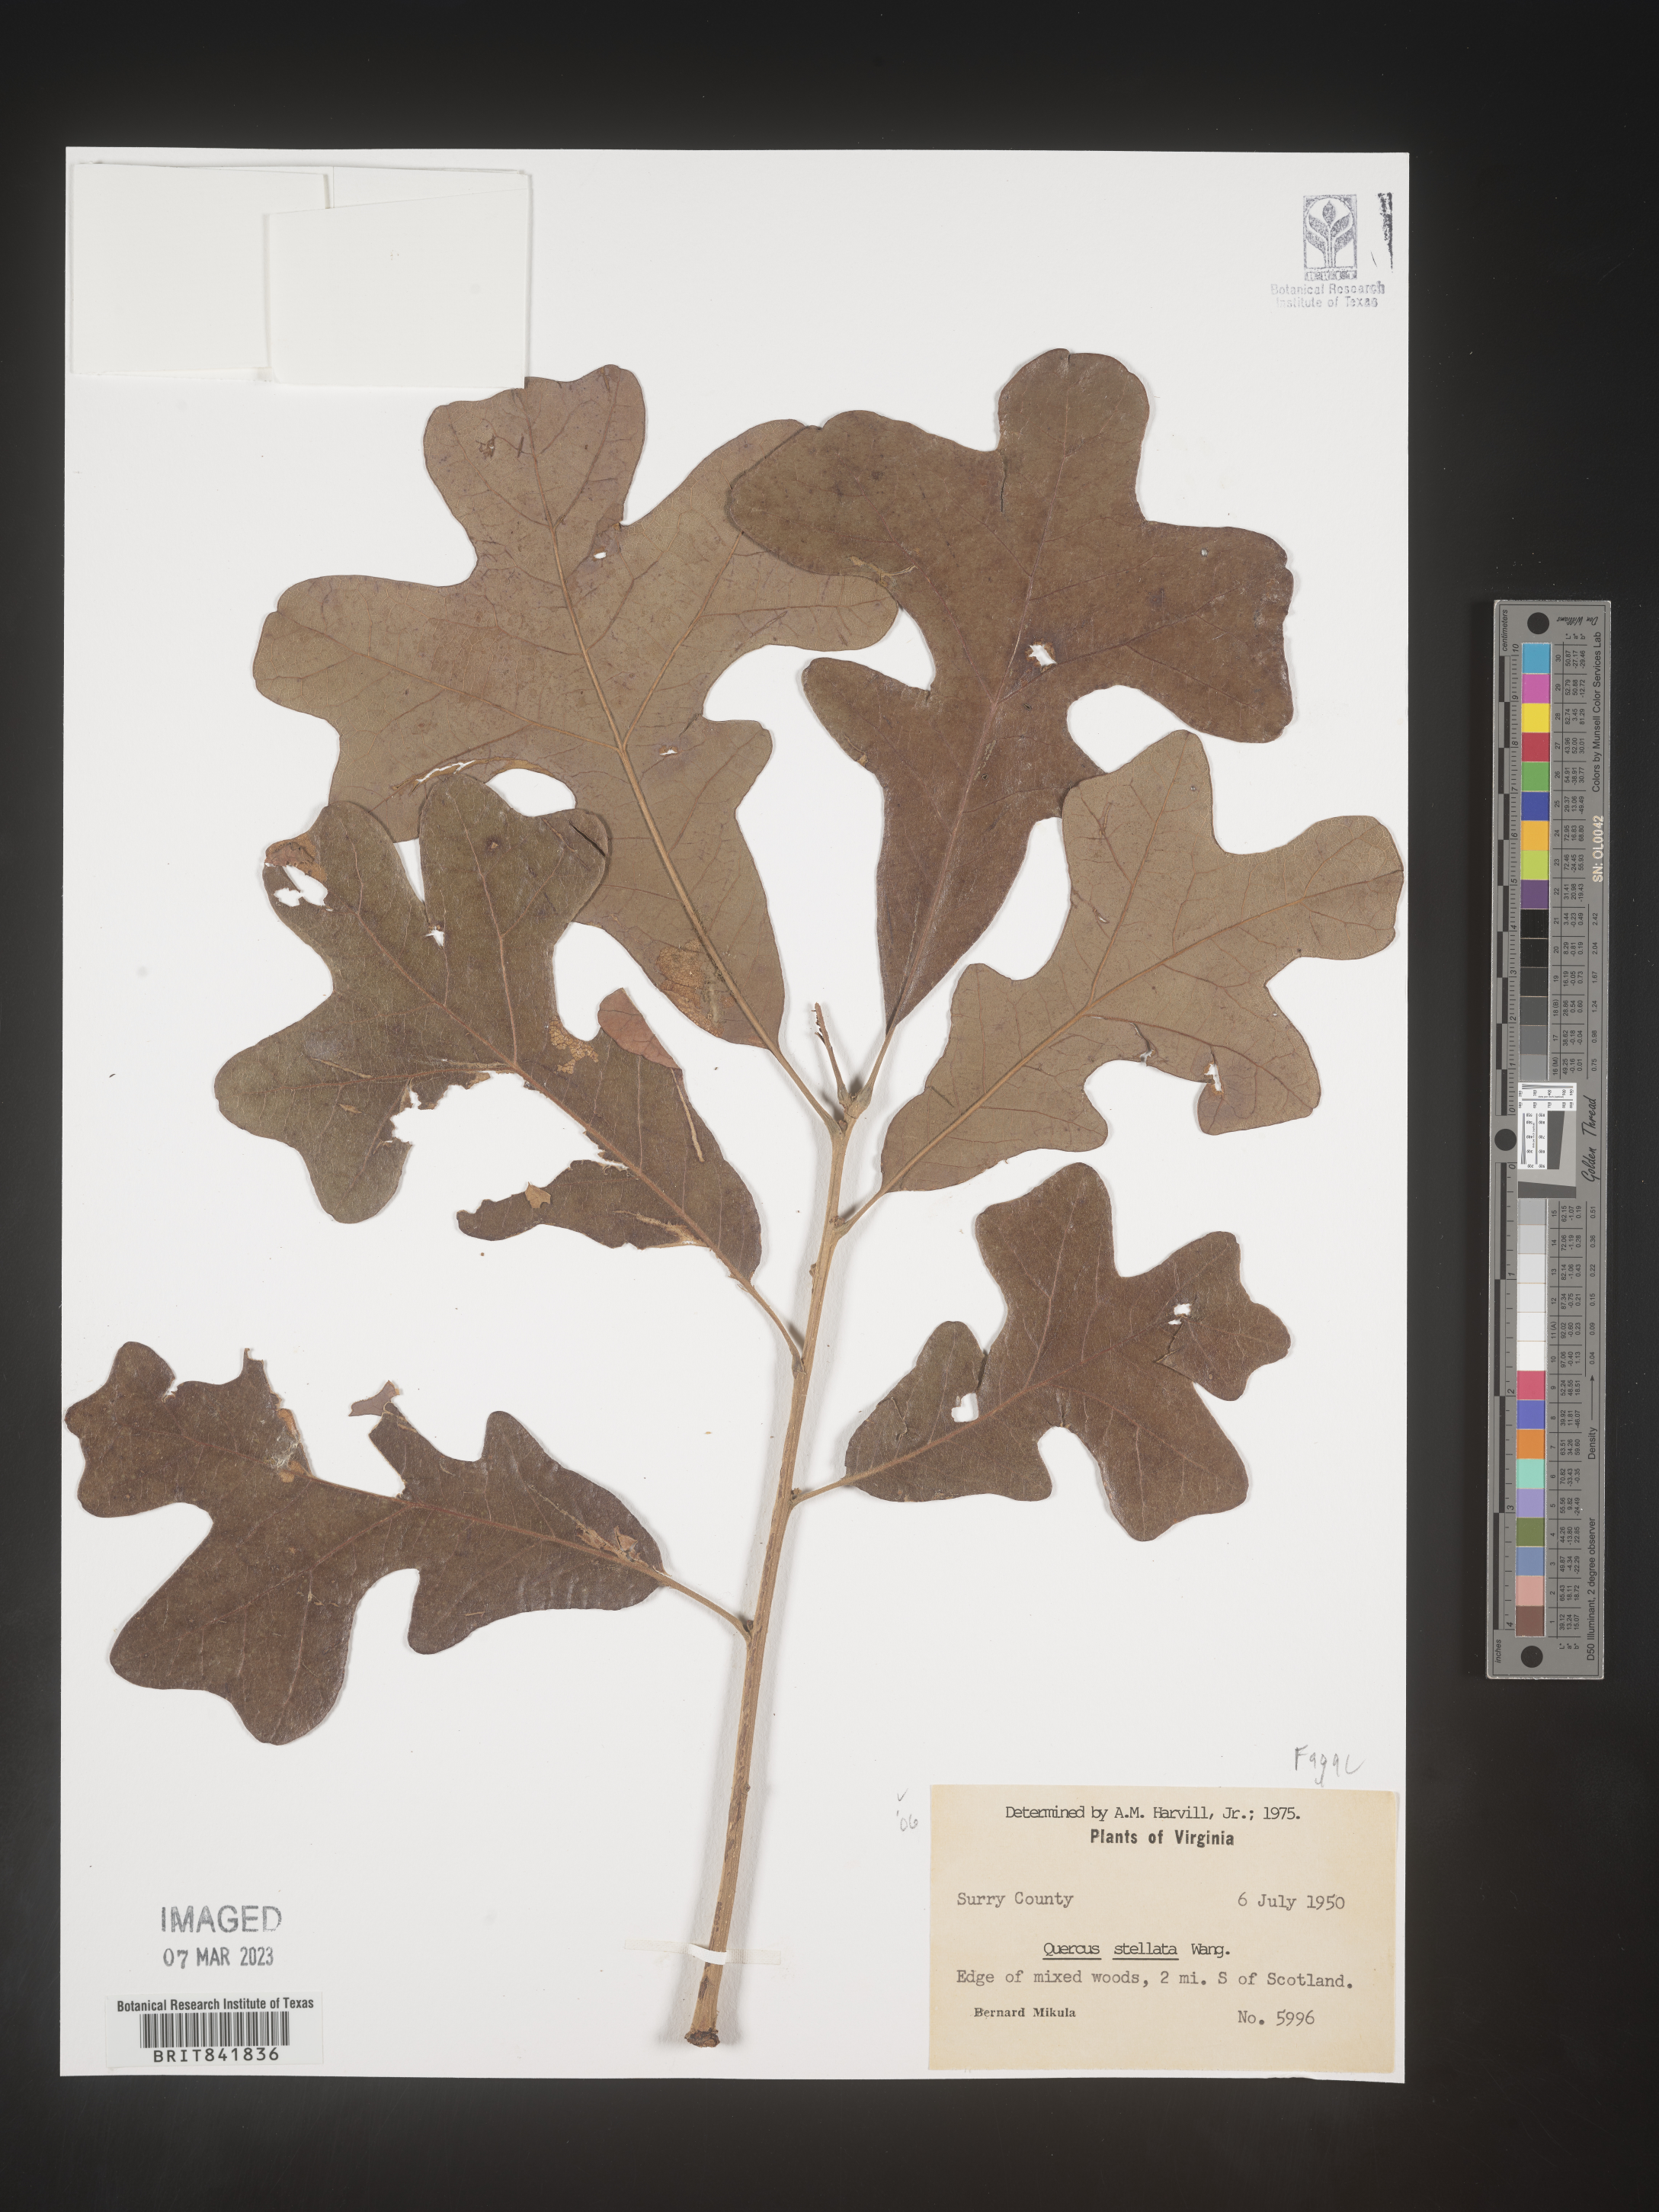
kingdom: Plantae
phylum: Tracheophyta
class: Magnoliopsida
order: Fagales
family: Fagaceae
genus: Quercus
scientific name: Quercus
